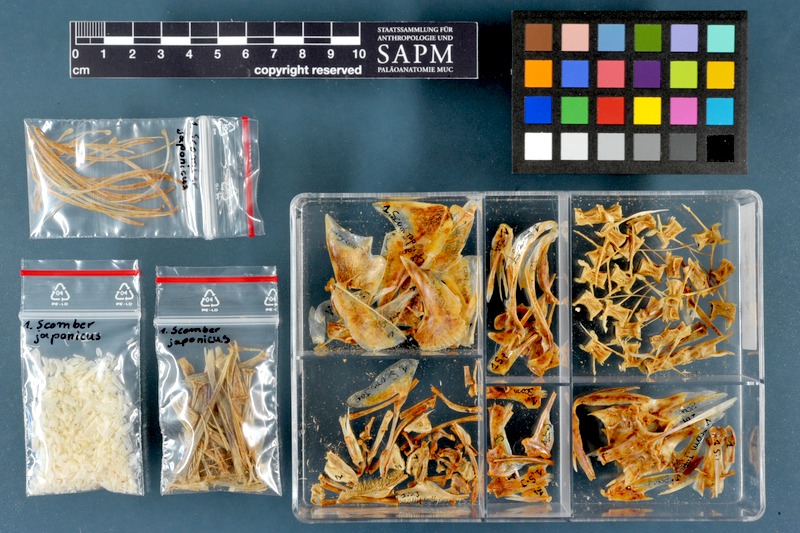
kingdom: Animalia
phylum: Chordata
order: Perciformes
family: Scombridae
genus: Scomber
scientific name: Scomber japonicus
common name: Chub mackerel
